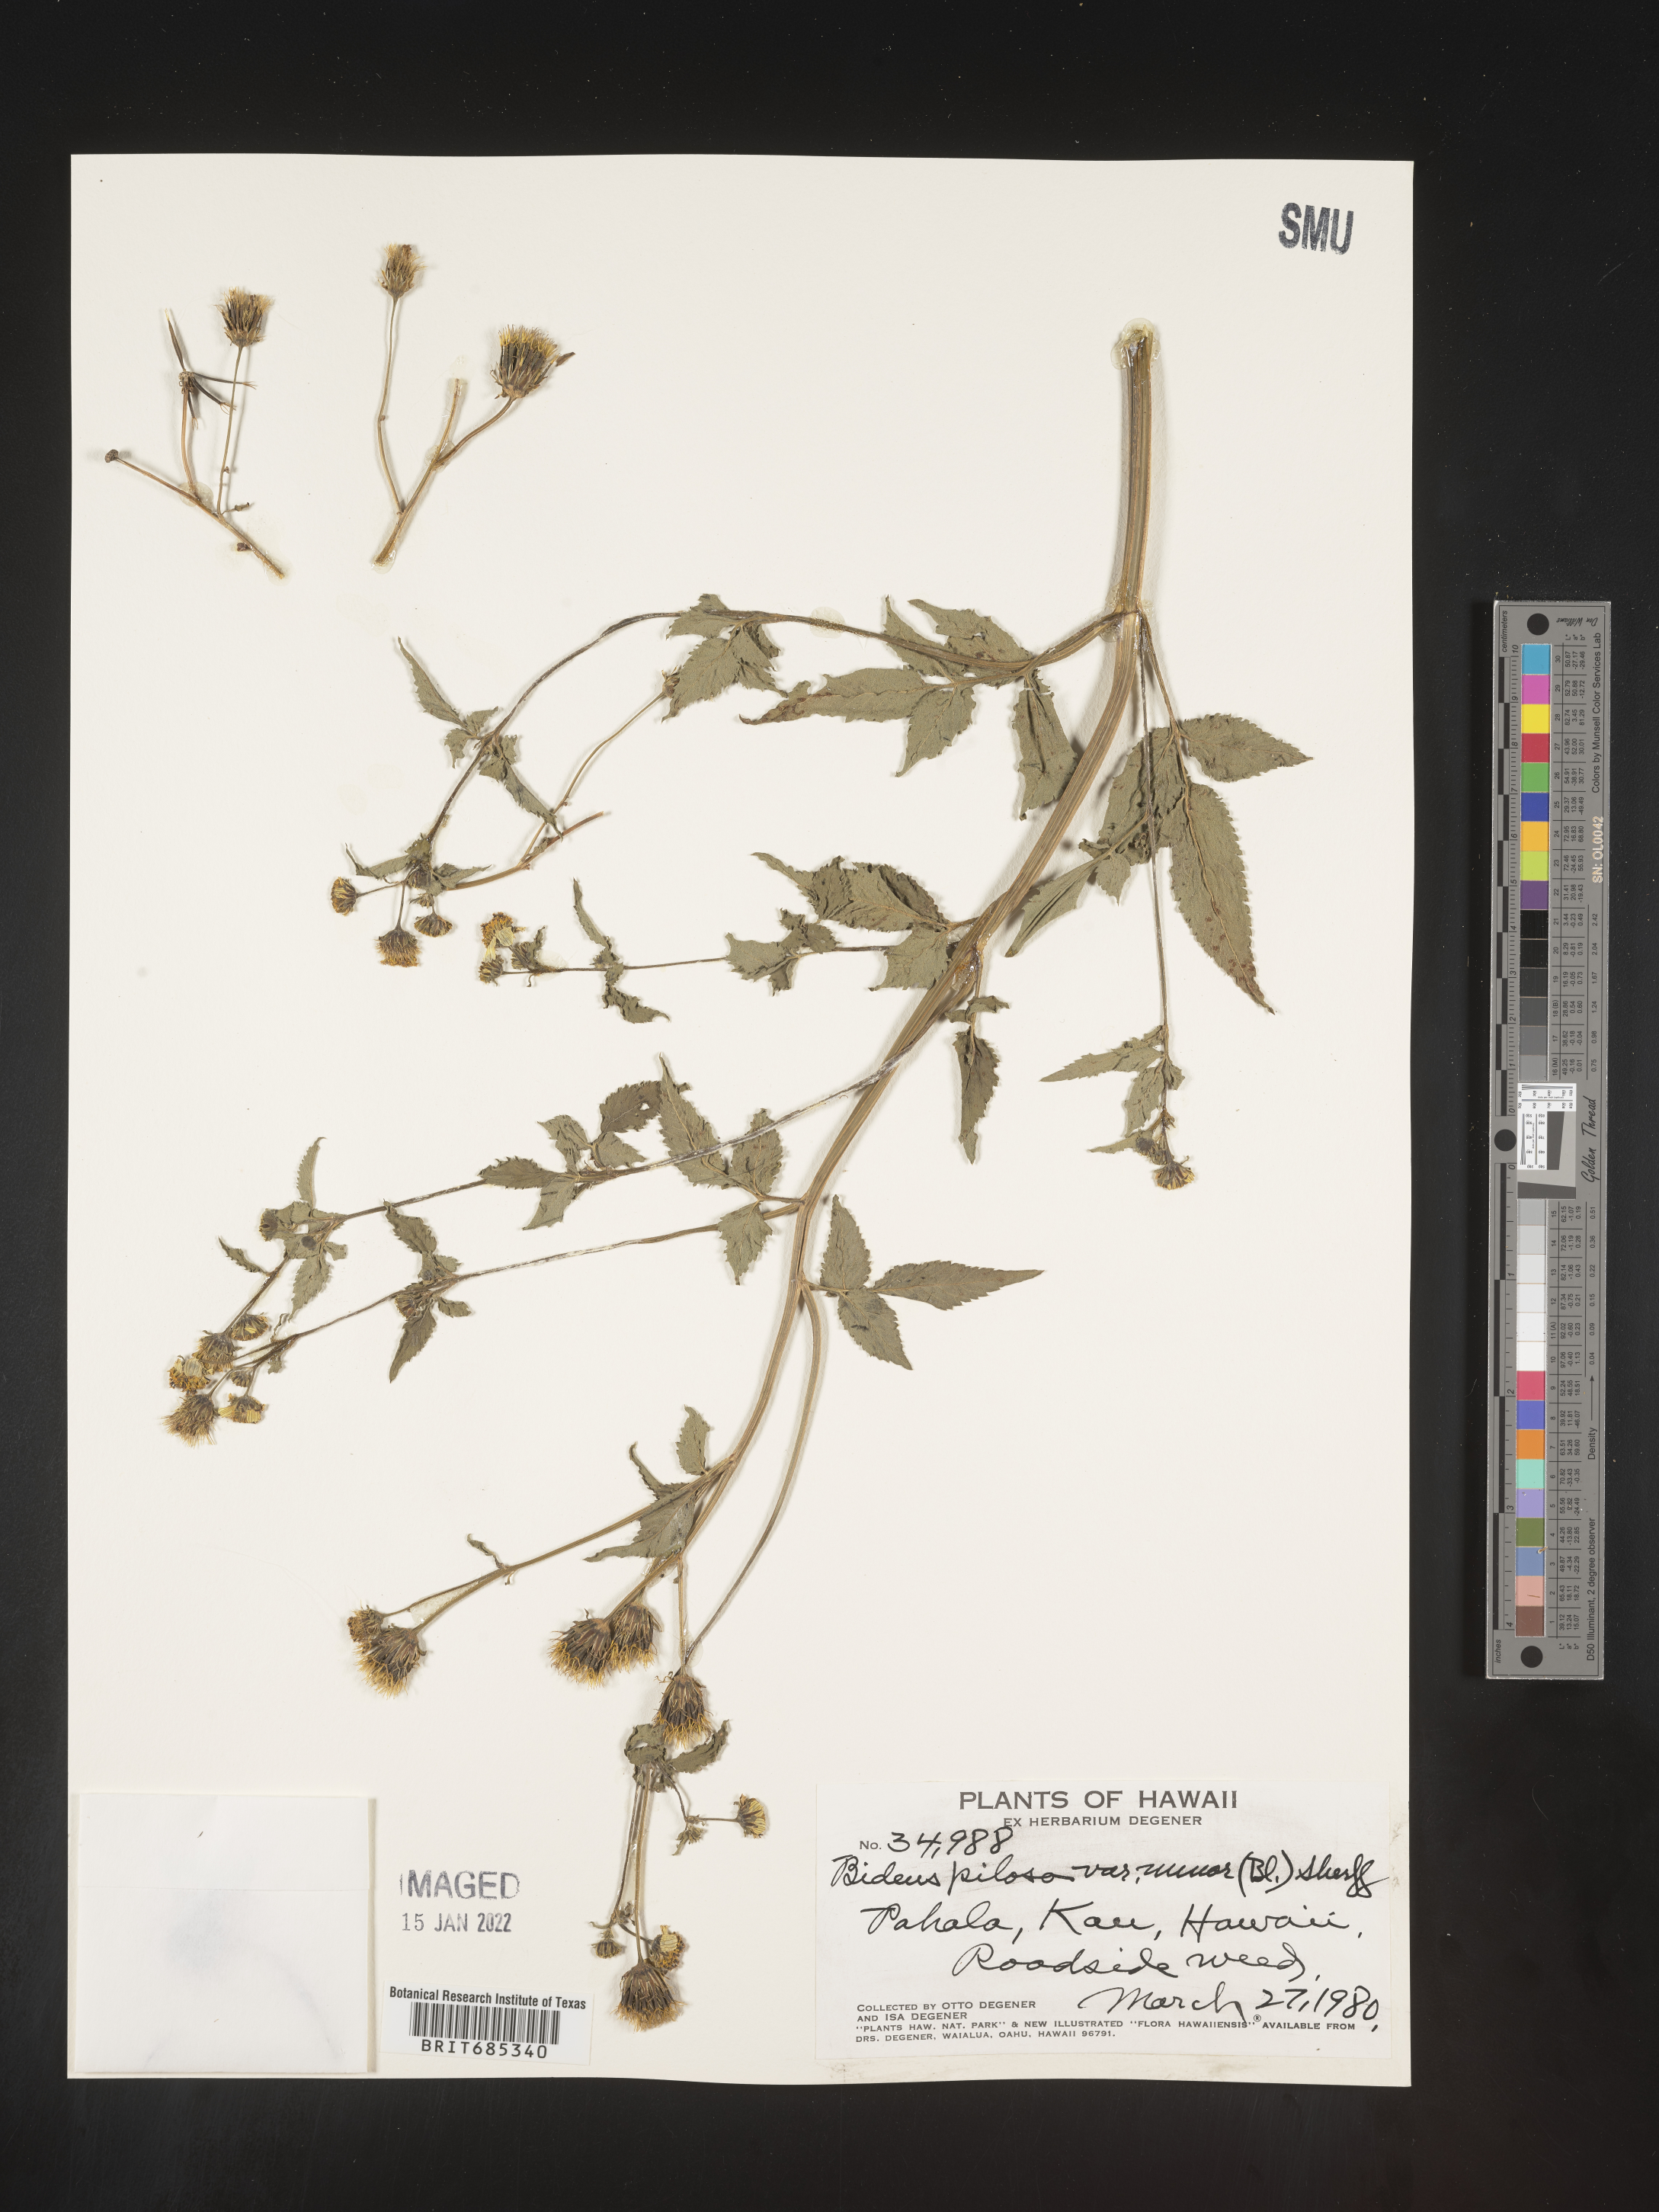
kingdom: Plantae
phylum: Tracheophyta
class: Magnoliopsida
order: Asterales
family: Asteraceae
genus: Bidens
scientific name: Bidens
